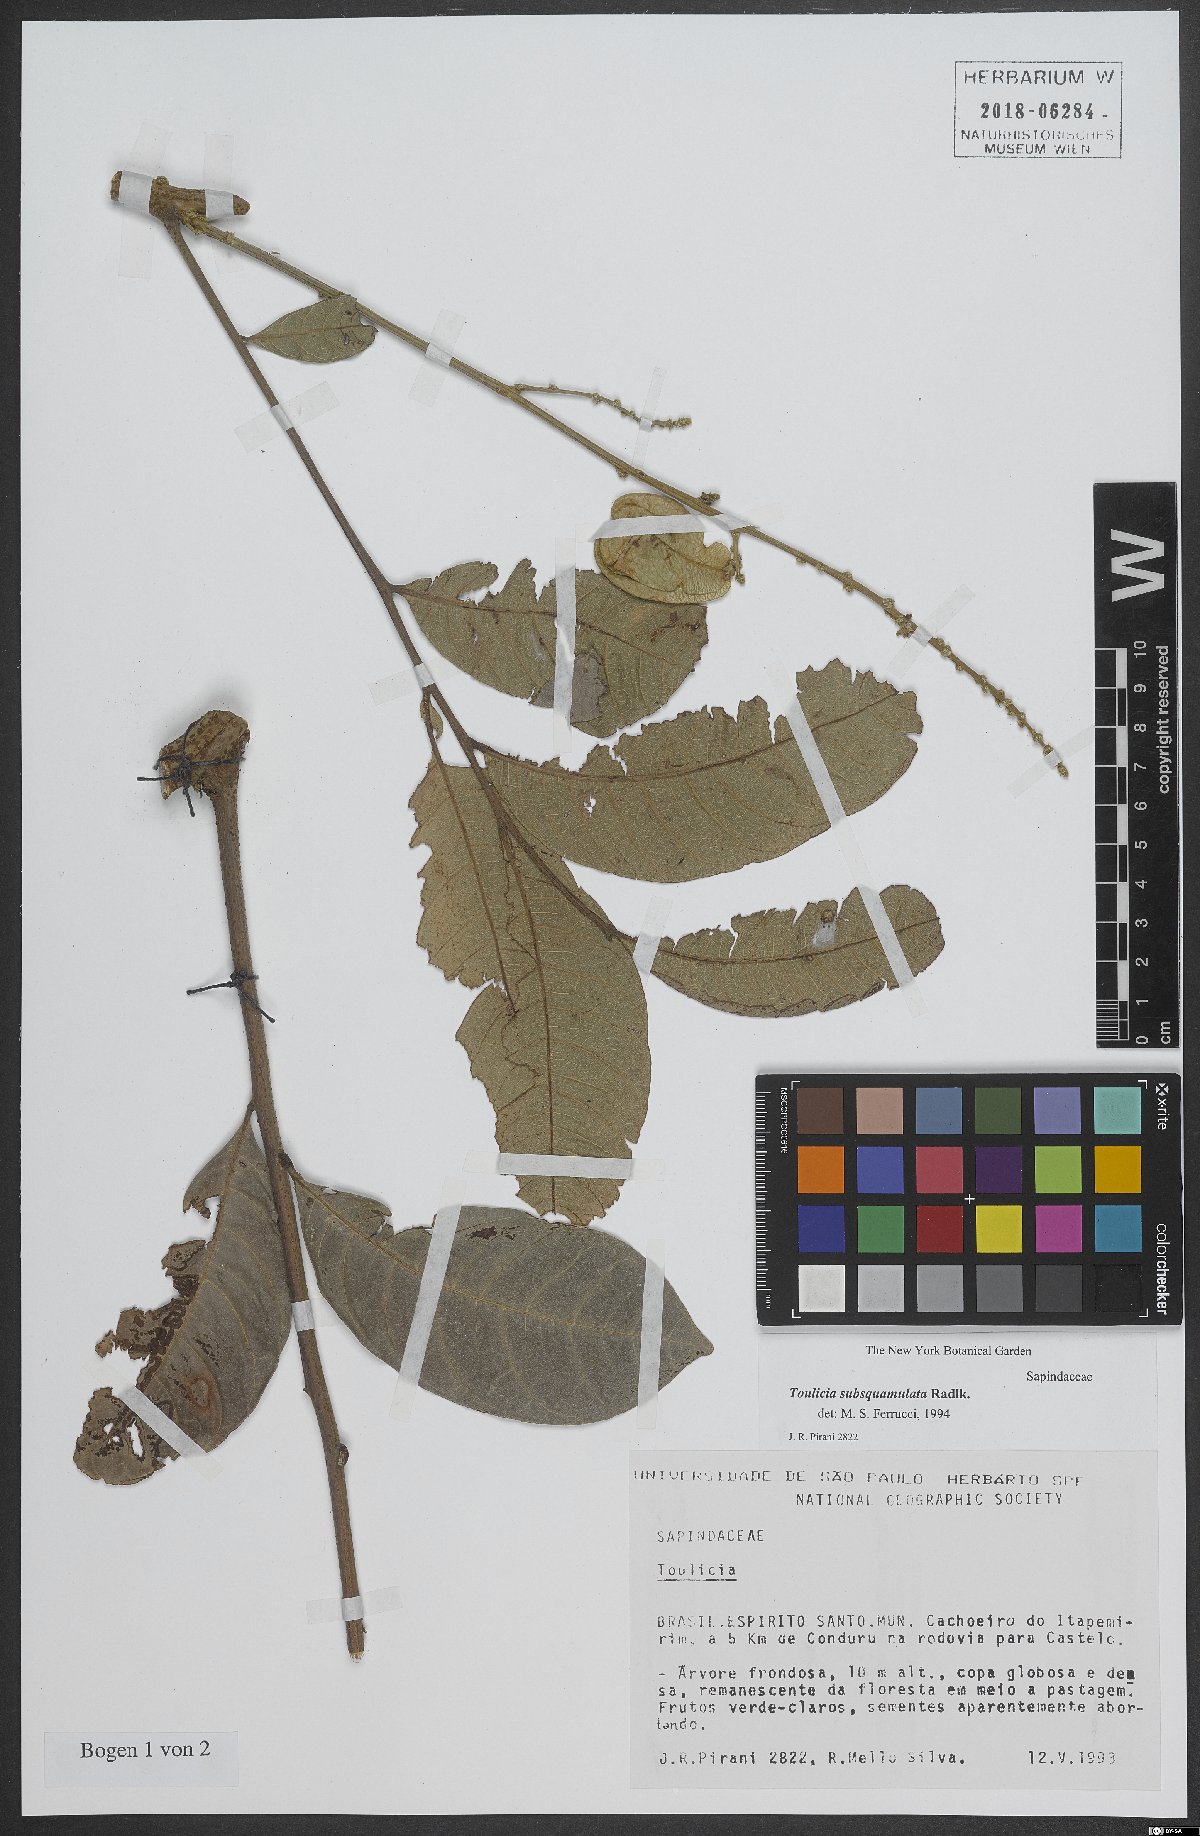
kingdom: Plantae
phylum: Tracheophyta
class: Magnoliopsida
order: Sapindales
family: Sapindaceae
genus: Toulicia
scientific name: Toulicia subsquamulata
